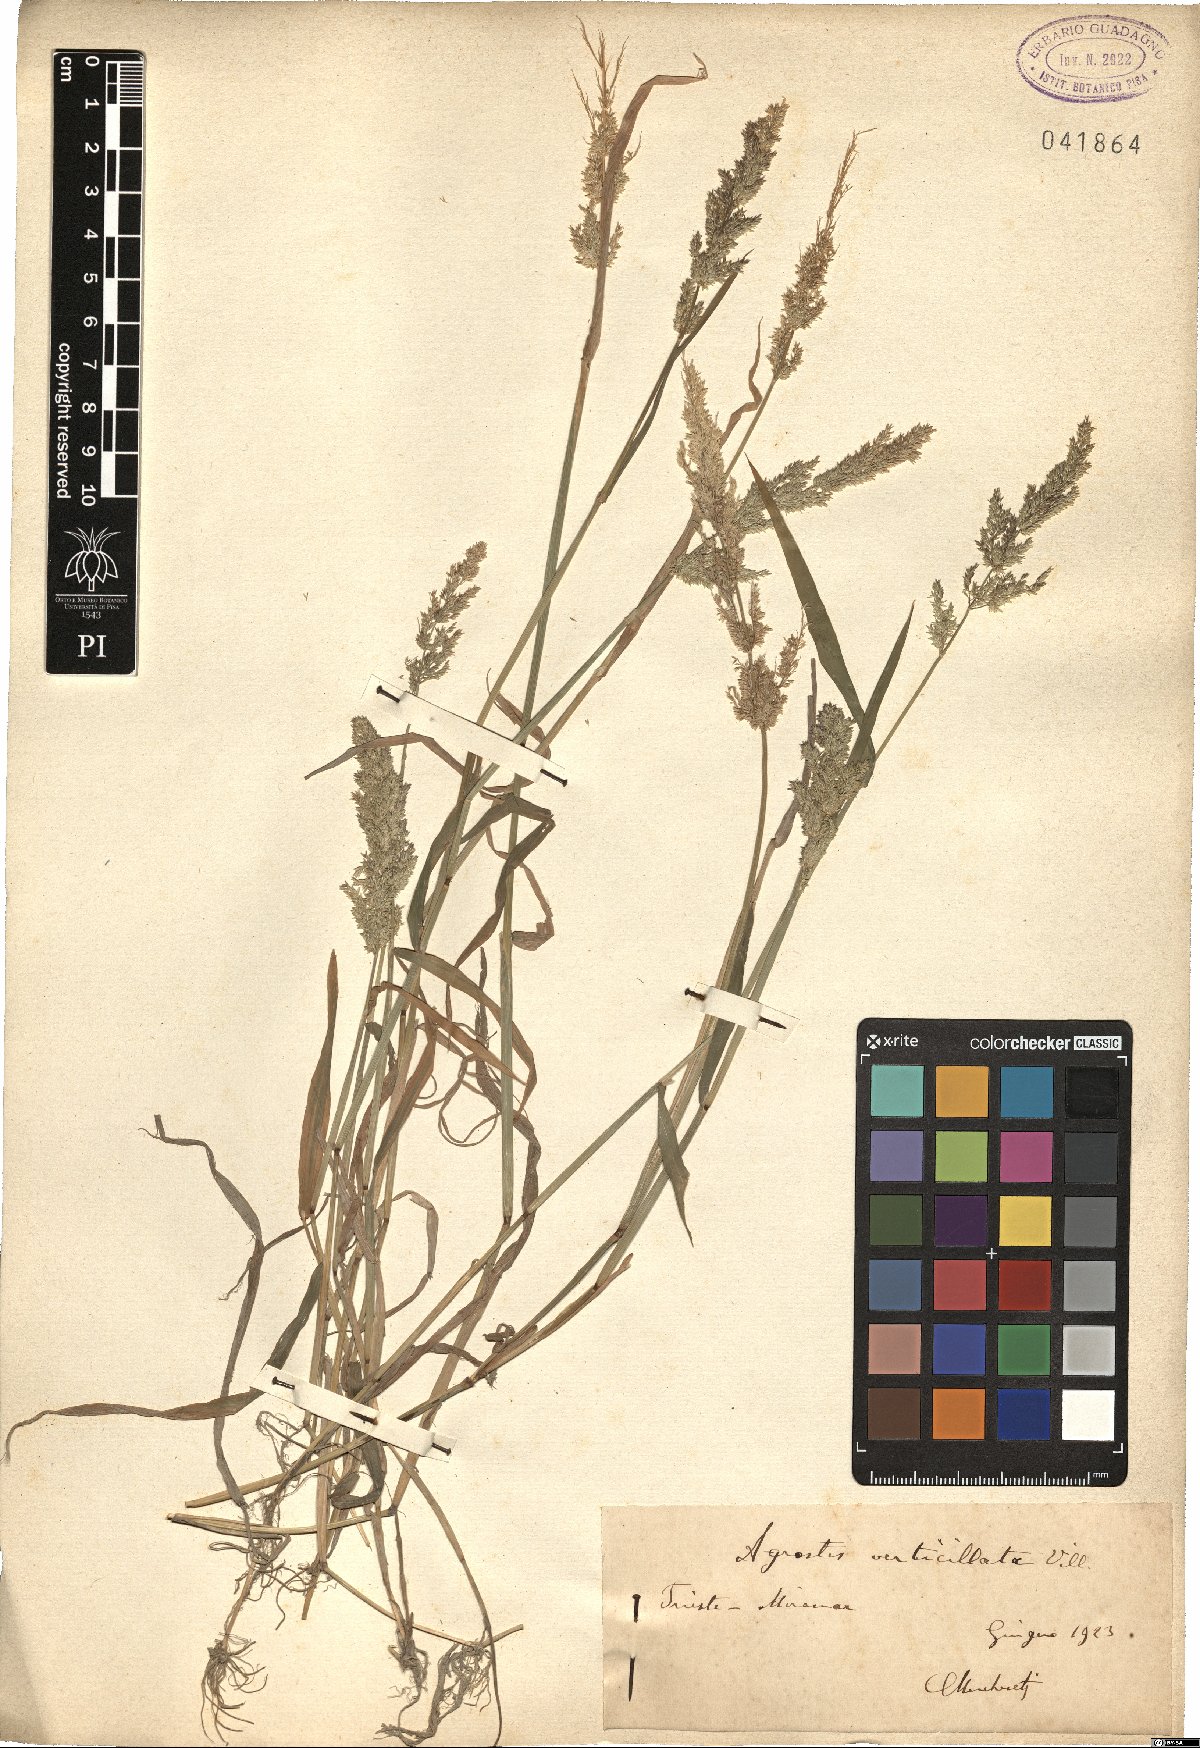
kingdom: Plantae
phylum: Tracheophyta
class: Liliopsida
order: Poales
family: Poaceae
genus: Polypogon
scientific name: Polypogon viridis
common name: Water bent
